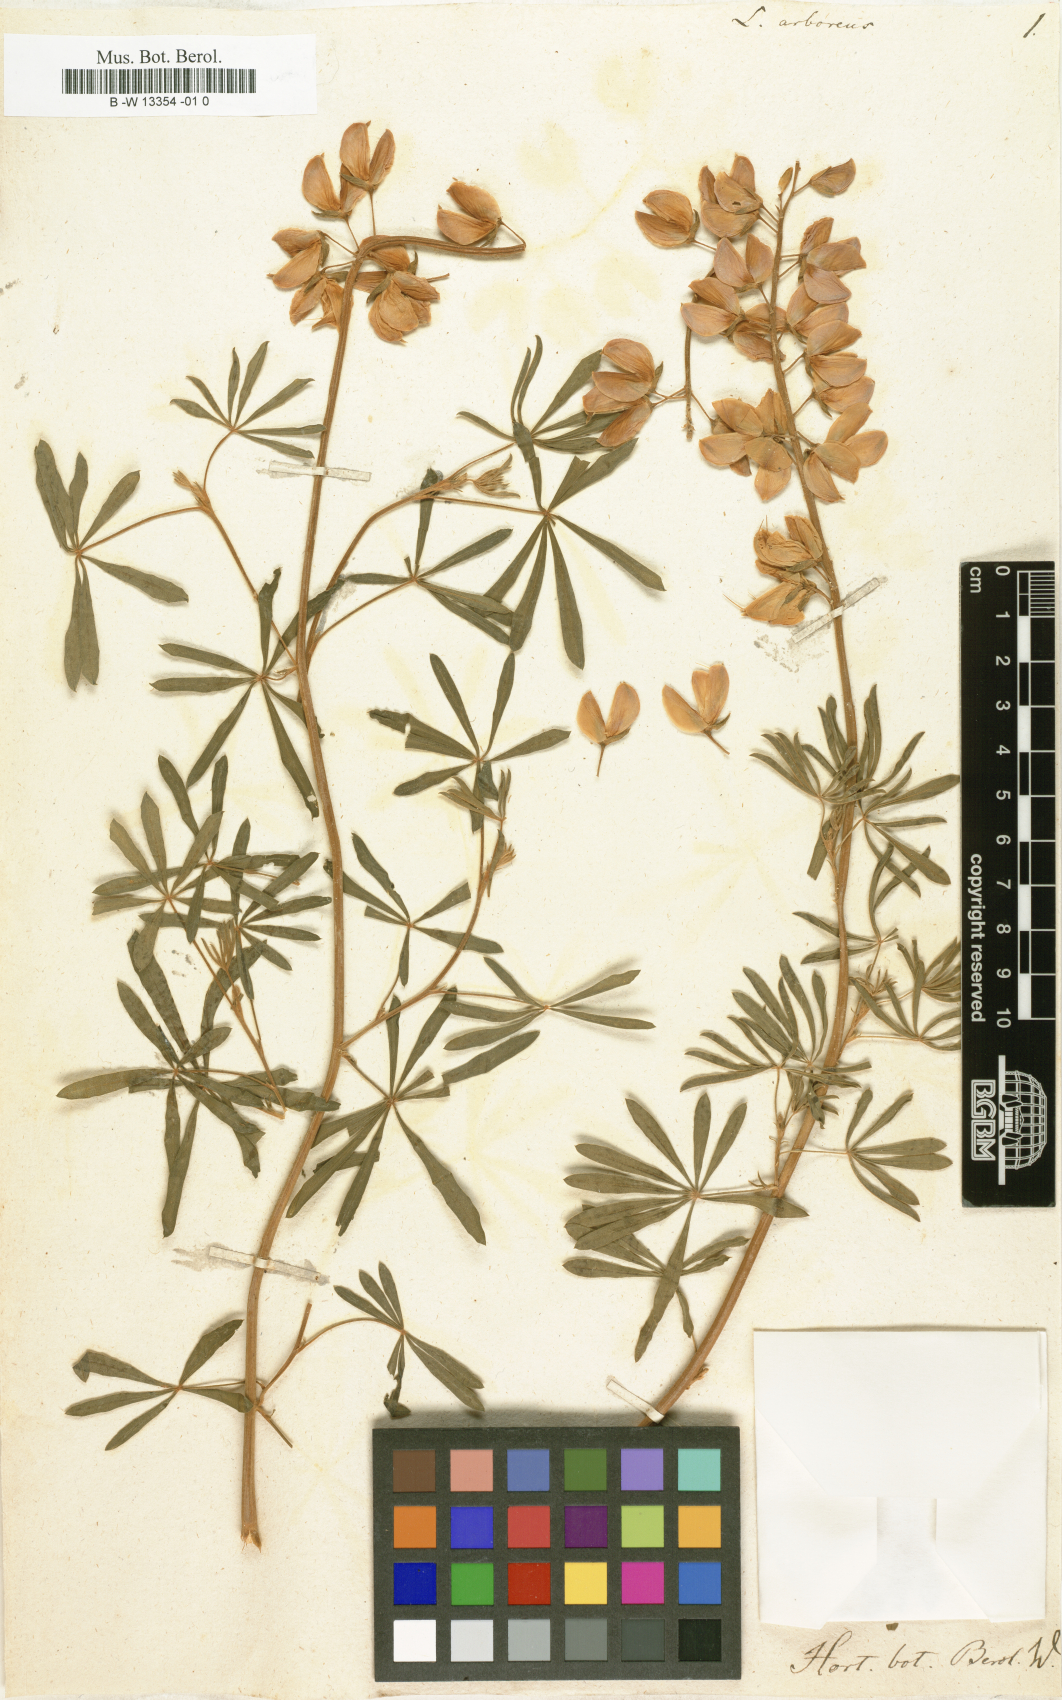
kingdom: Plantae
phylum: Tracheophyta
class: Magnoliopsida
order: Fabales
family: Fabaceae
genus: Lupinus
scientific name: Lupinus arboreus
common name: Yellow bush lupine
